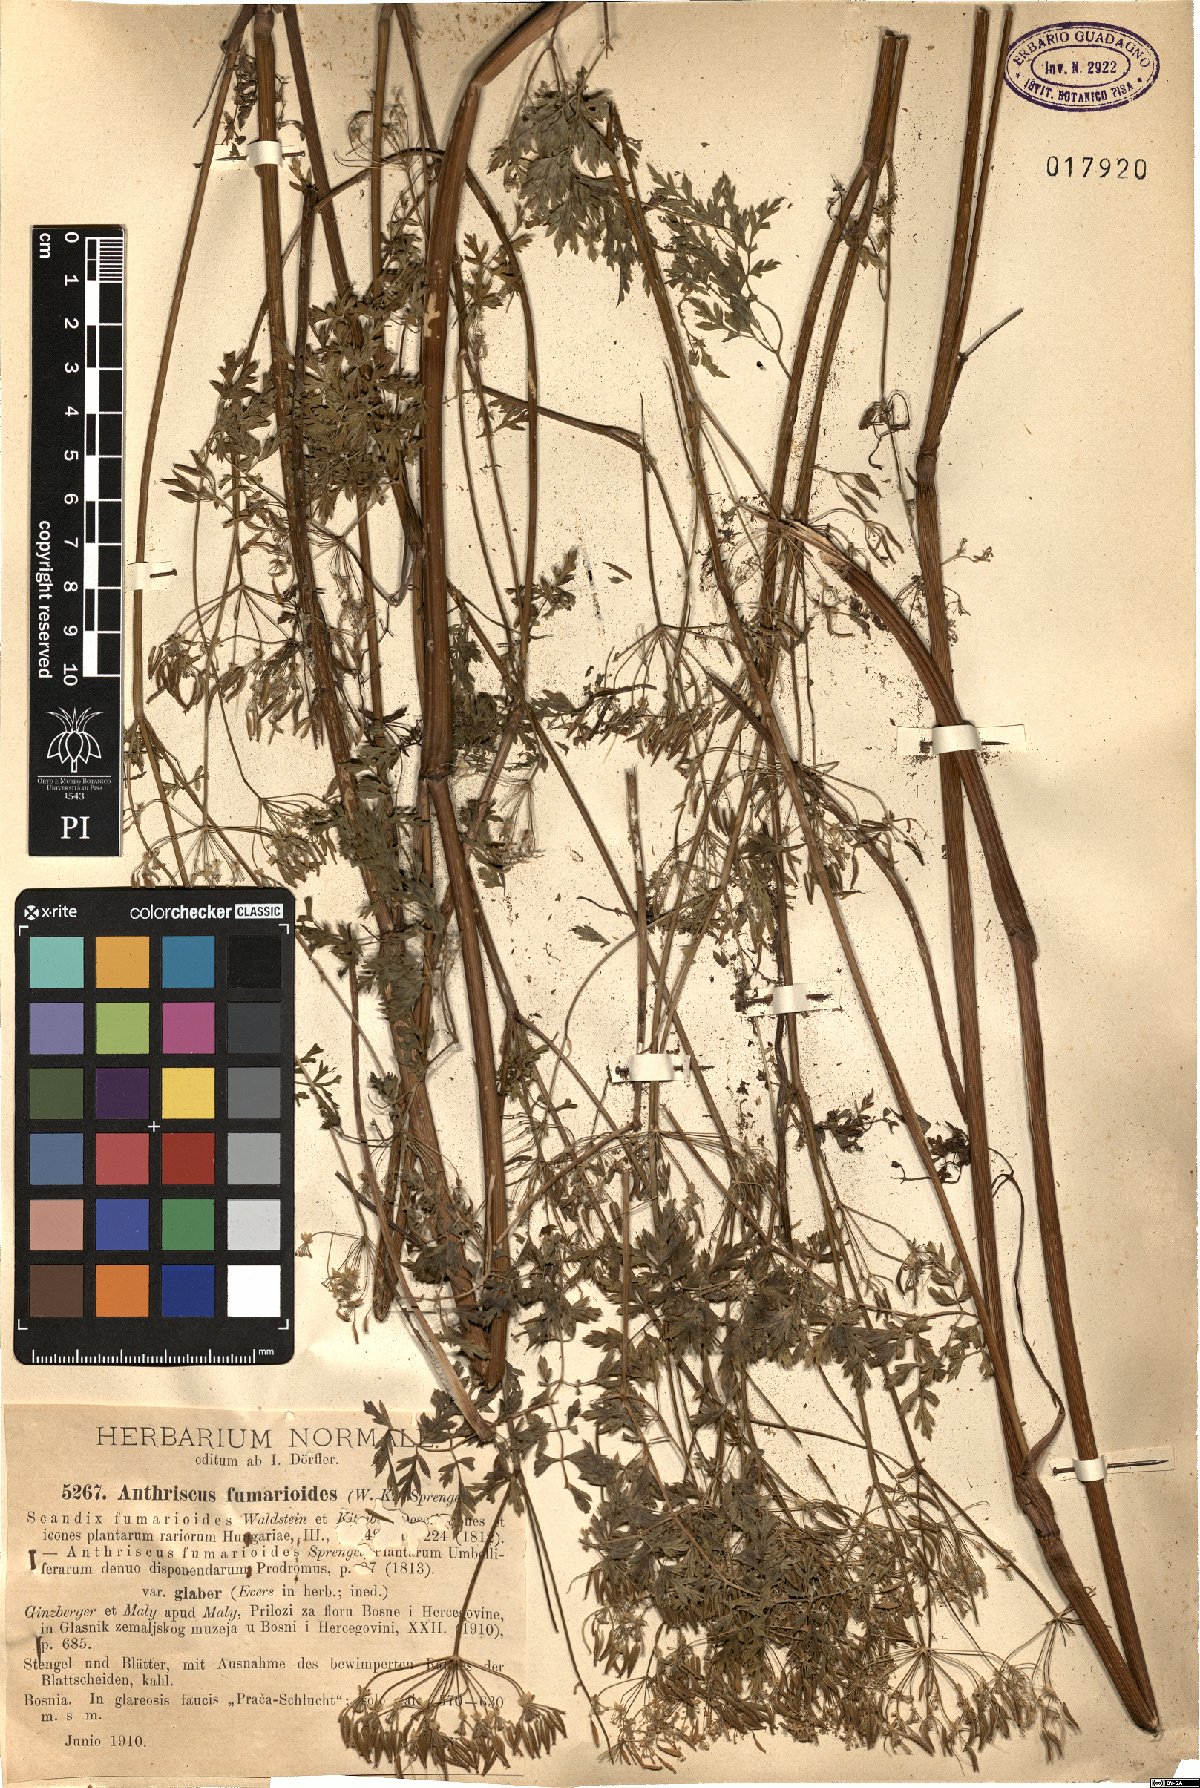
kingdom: Plantae
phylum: Tracheophyta
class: Magnoliopsida
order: Apiales
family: Apiaceae
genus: Anthriscus
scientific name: Anthriscus fumarioides
